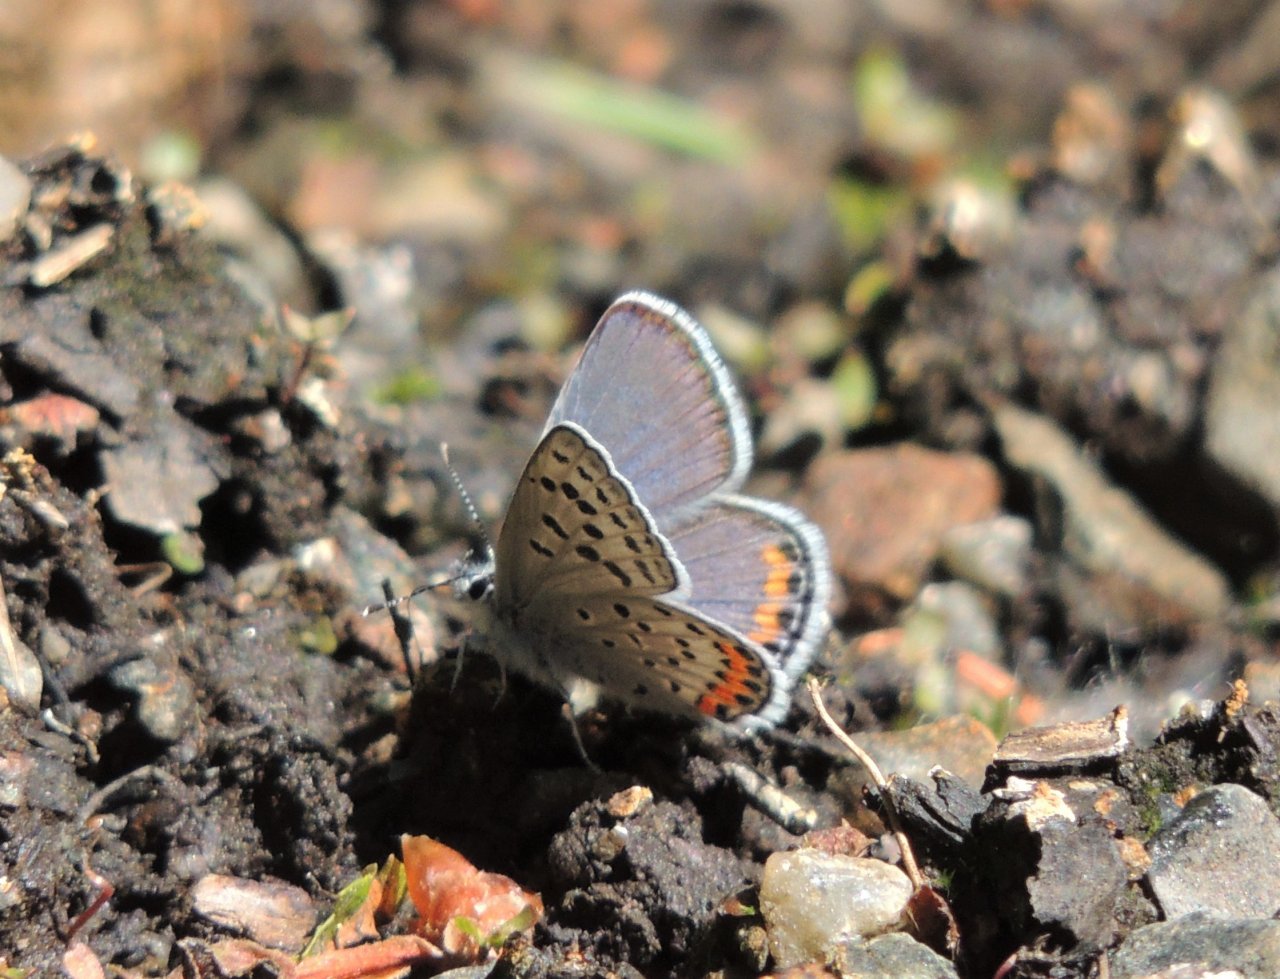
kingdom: Animalia
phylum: Arthropoda
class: Insecta
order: Lepidoptera
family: Lycaenidae
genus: Plebejus
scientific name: Plebejus lupini
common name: Lupine Blue
